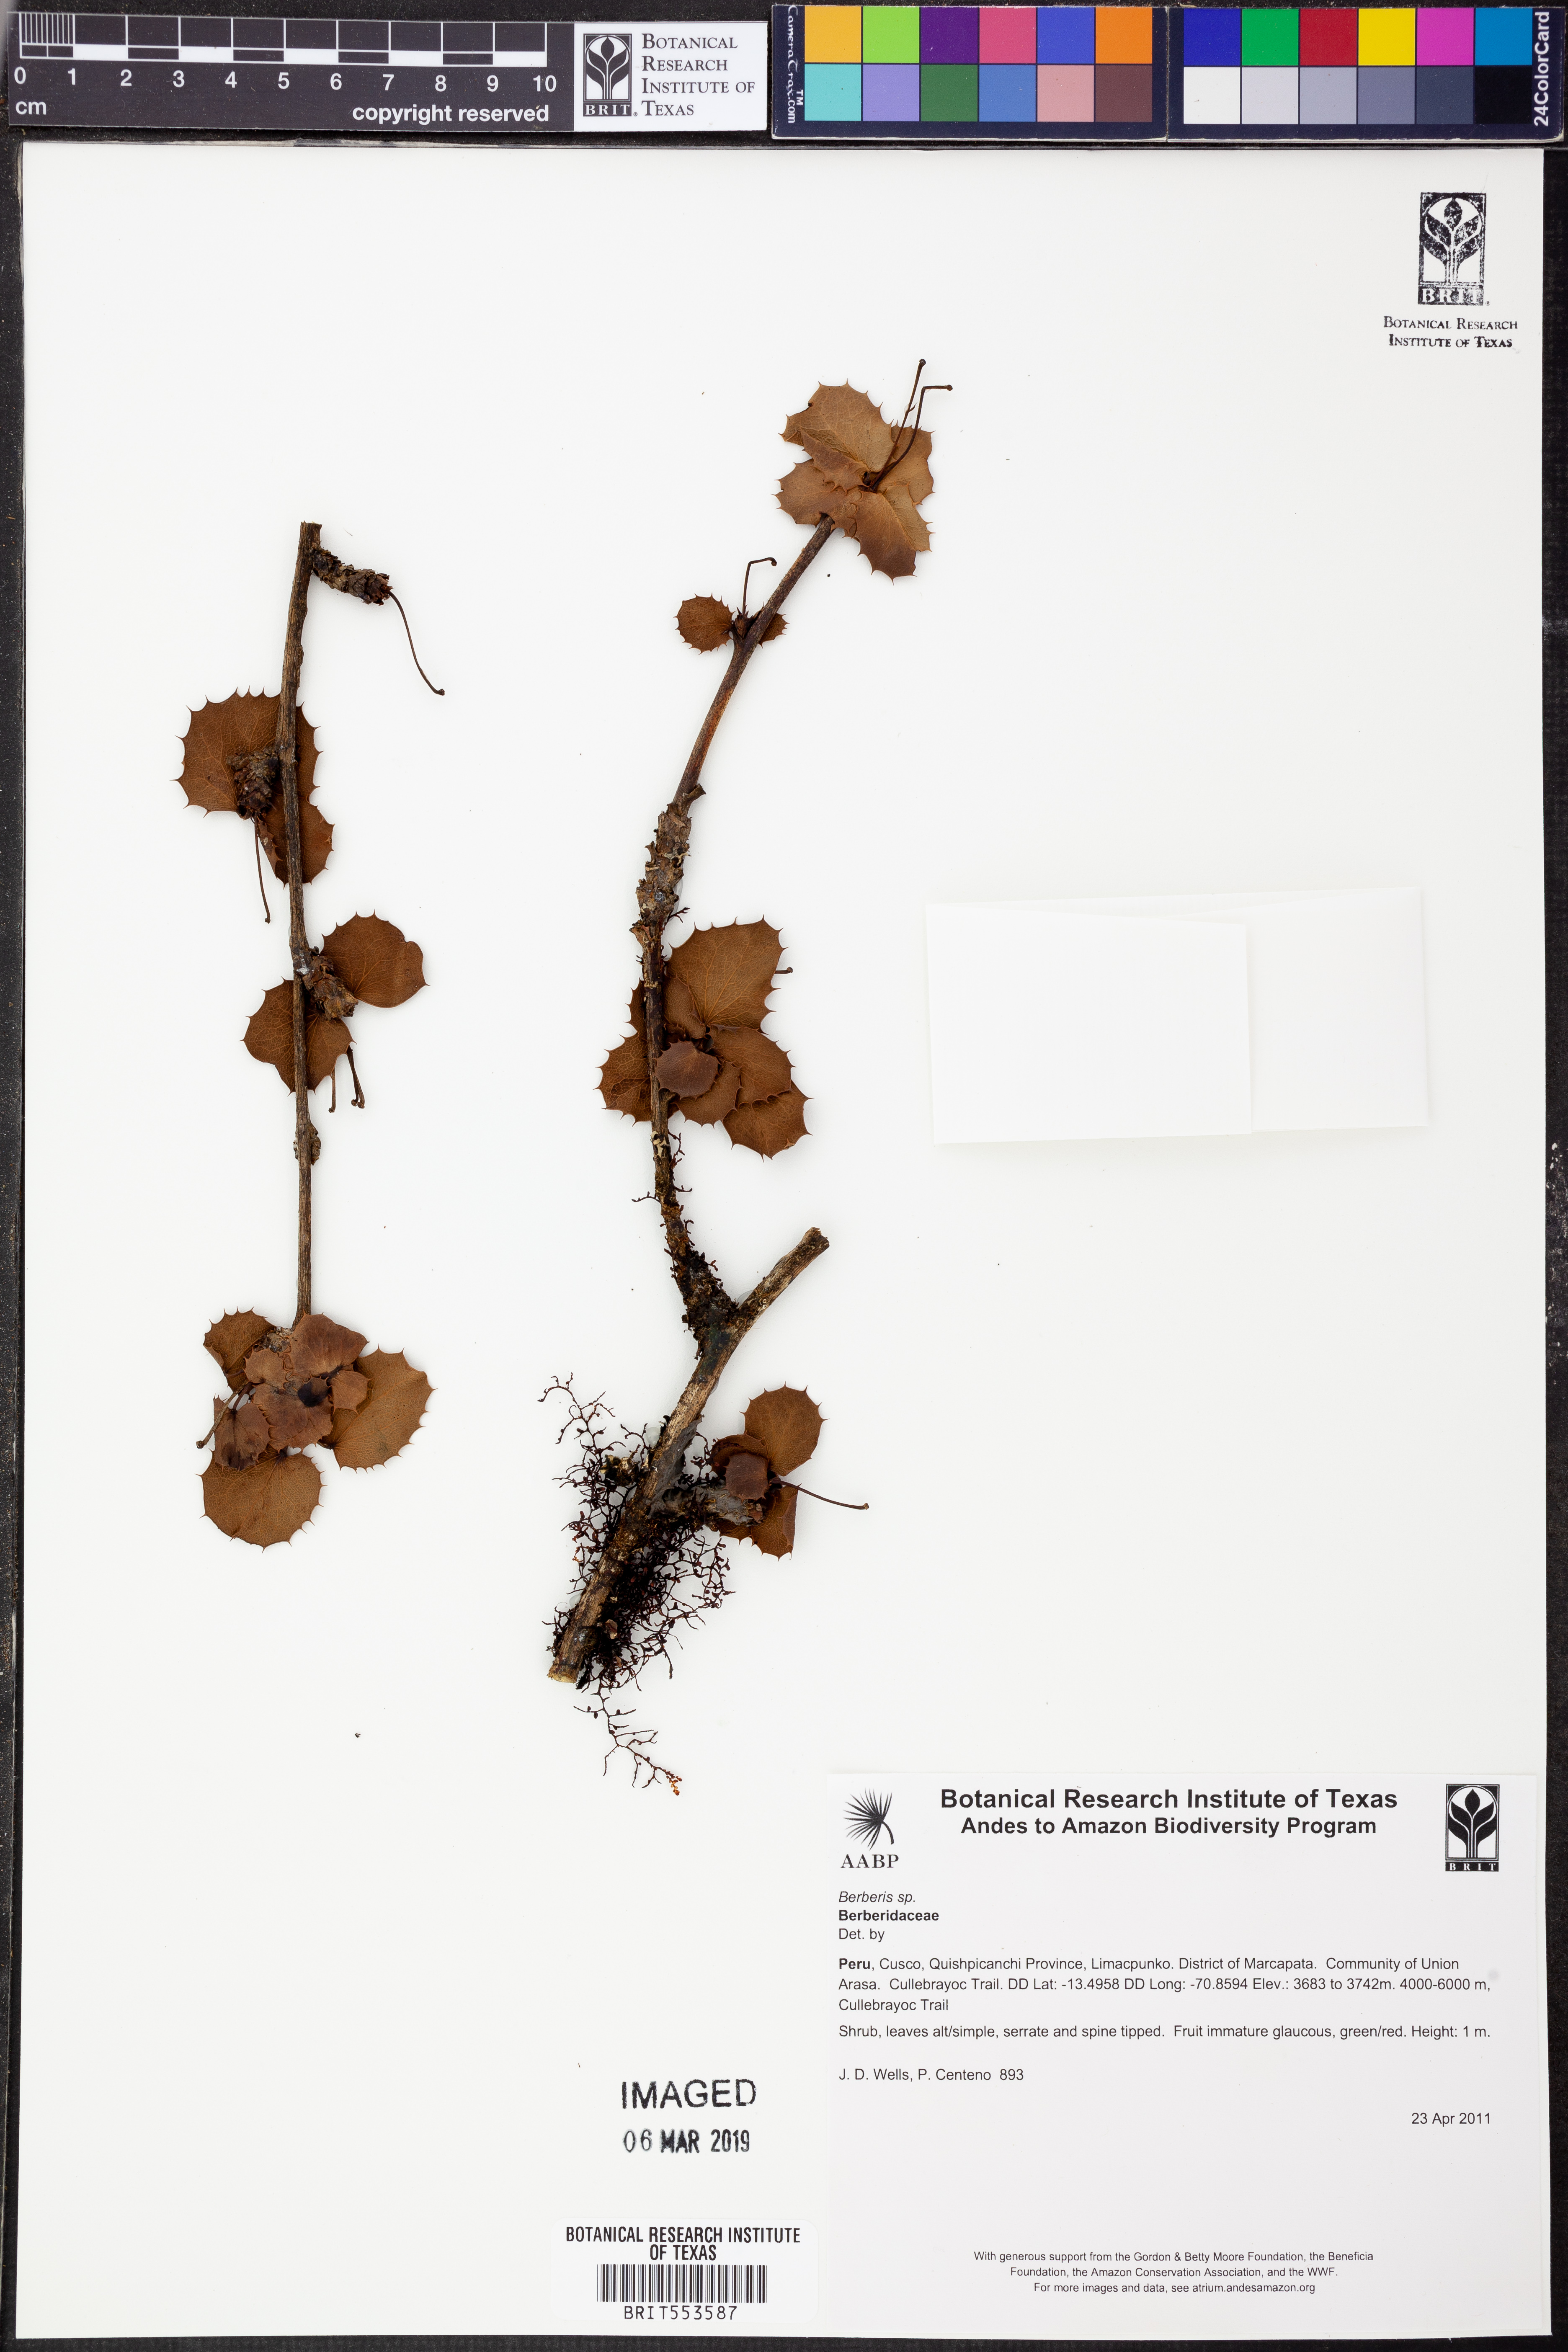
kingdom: Plantae
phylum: Tracheophyta
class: Magnoliopsida
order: Ranunculales
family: Berberidaceae
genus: Berberis
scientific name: Berberis
